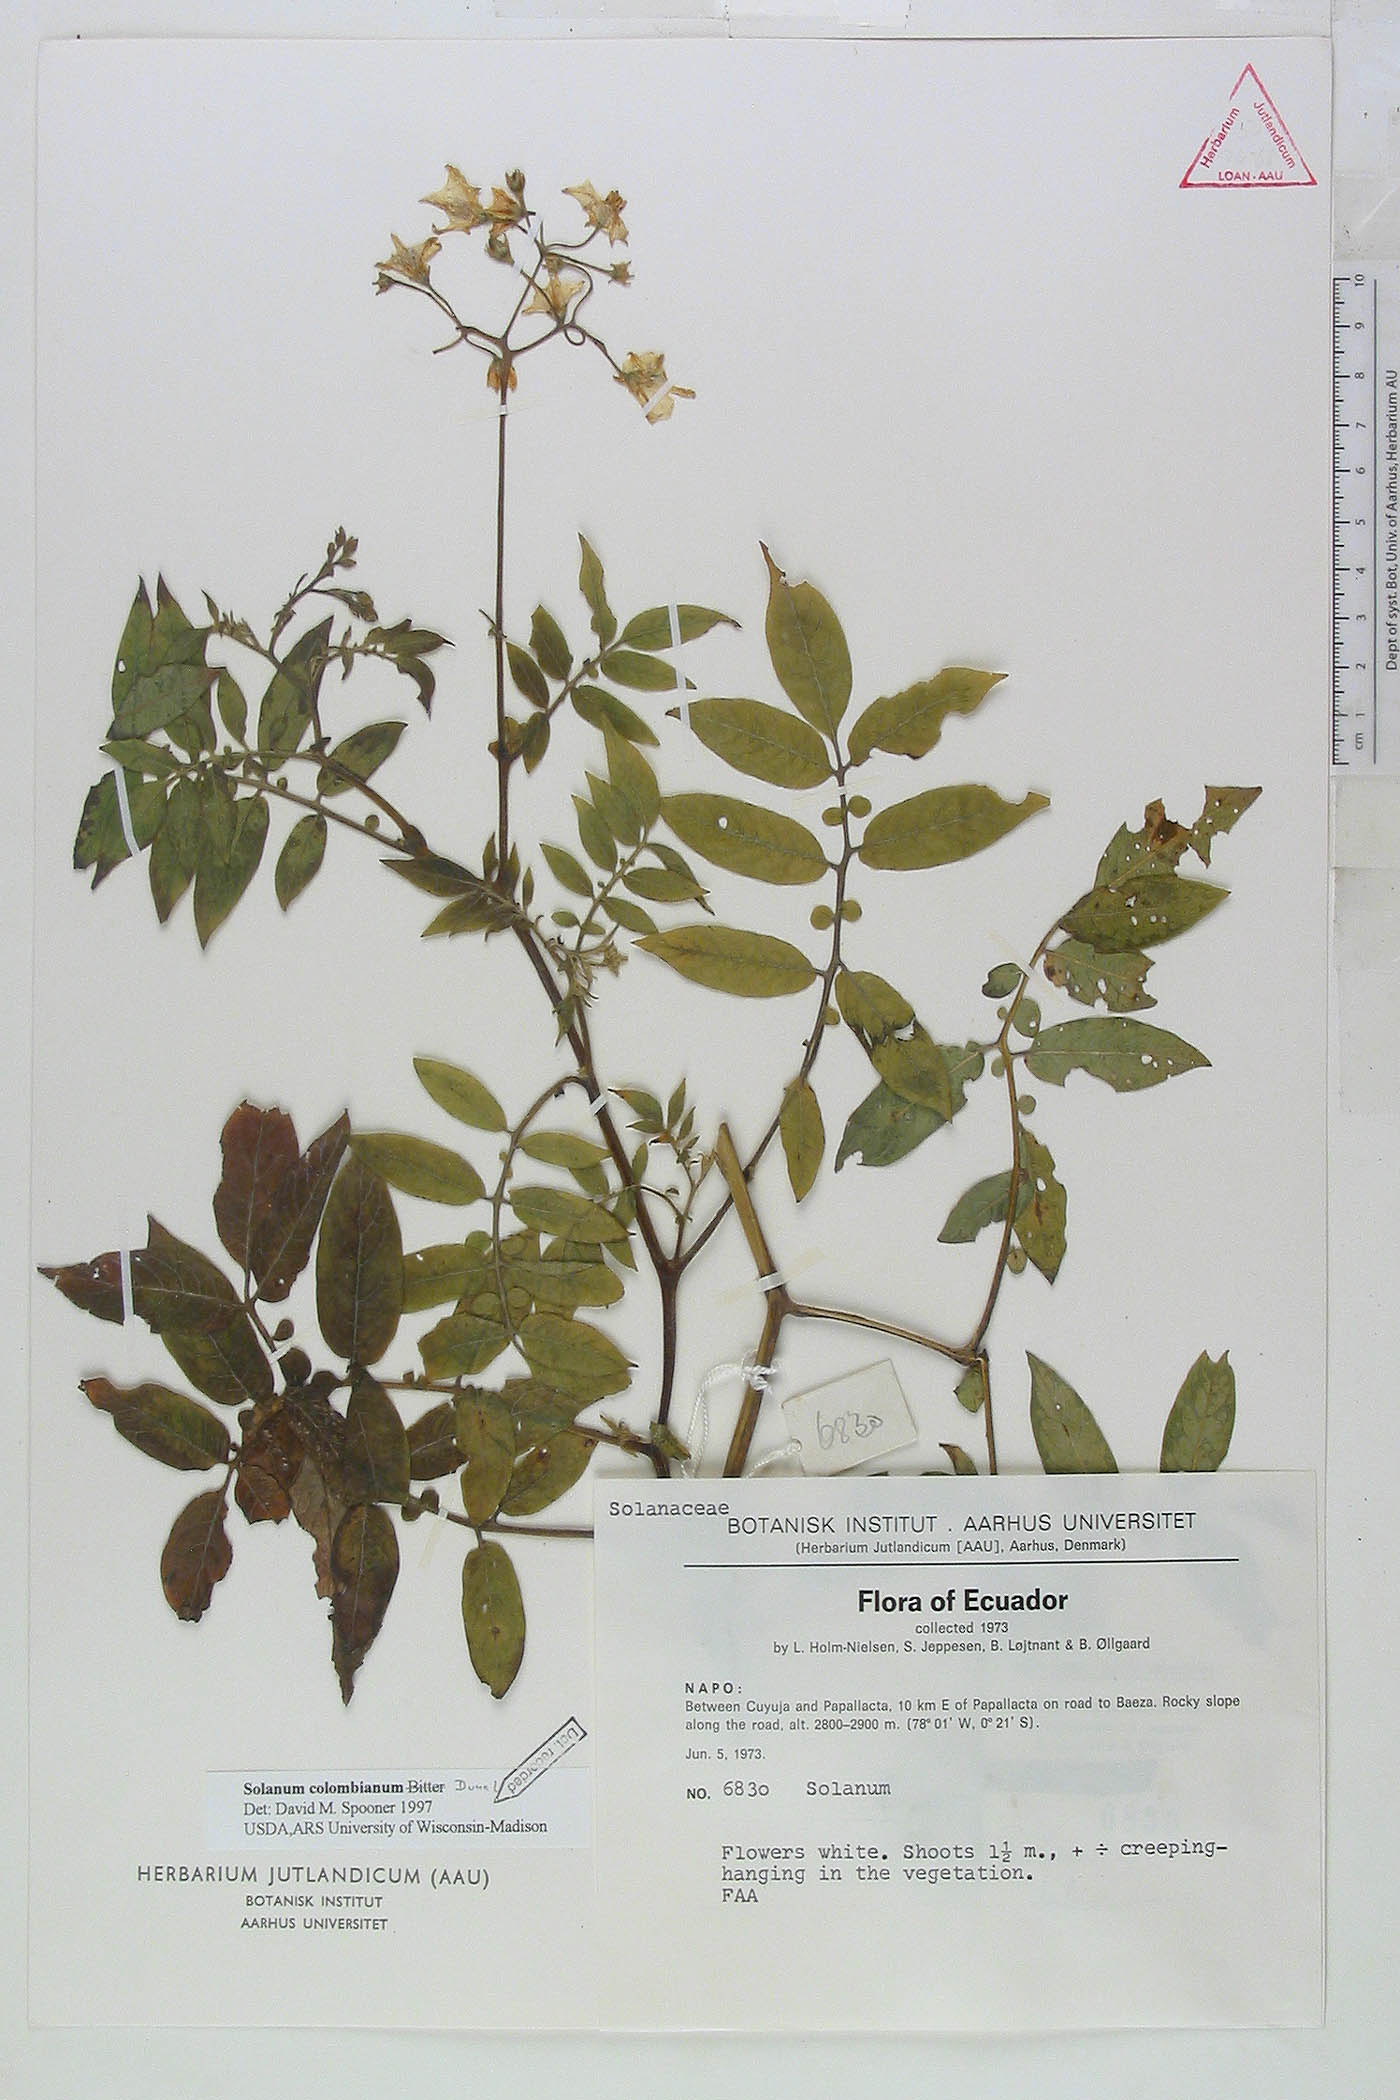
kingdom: Plantae
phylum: Tracheophyta
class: Magnoliopsida
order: Solanales
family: Solanaceae
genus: Solanum
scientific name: Solanum colombianum
